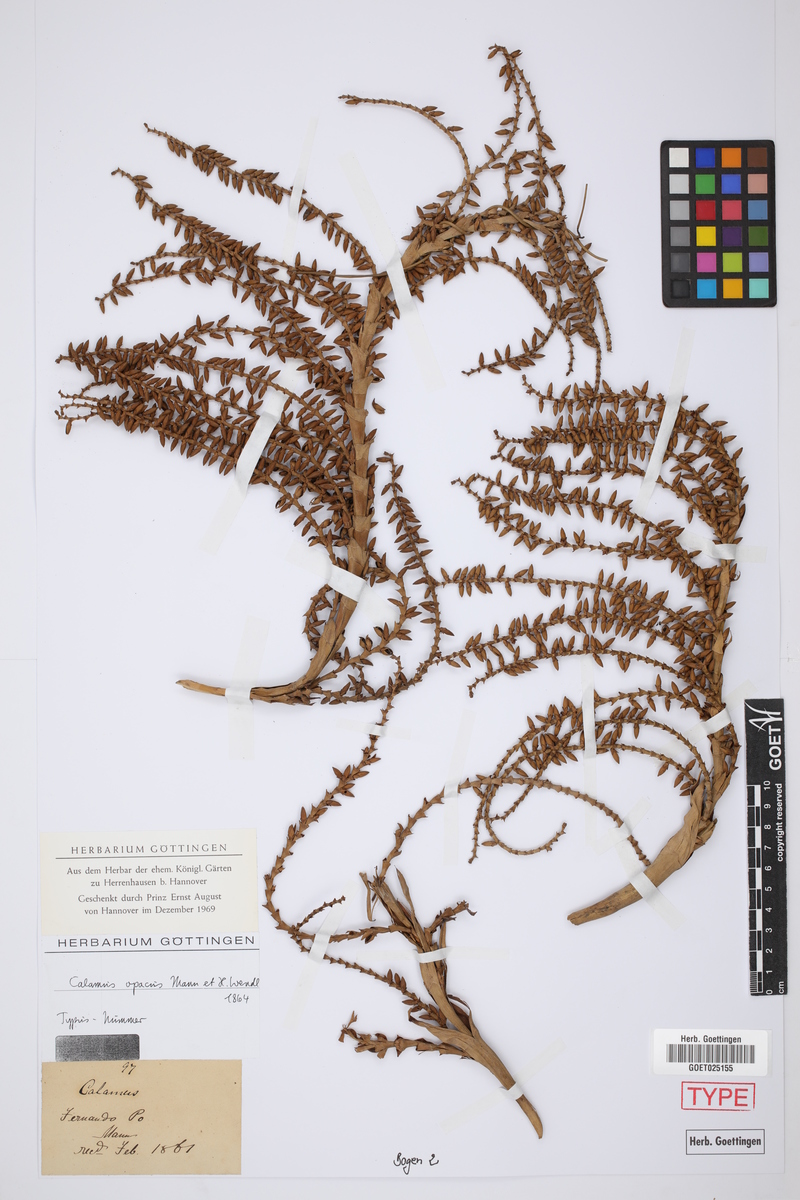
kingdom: Plantae
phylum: Tracheophyta
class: Liliopsida
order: Arecales
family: Arecaceae
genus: Laccosperma
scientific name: Laccosperma opacum
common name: Rattan
